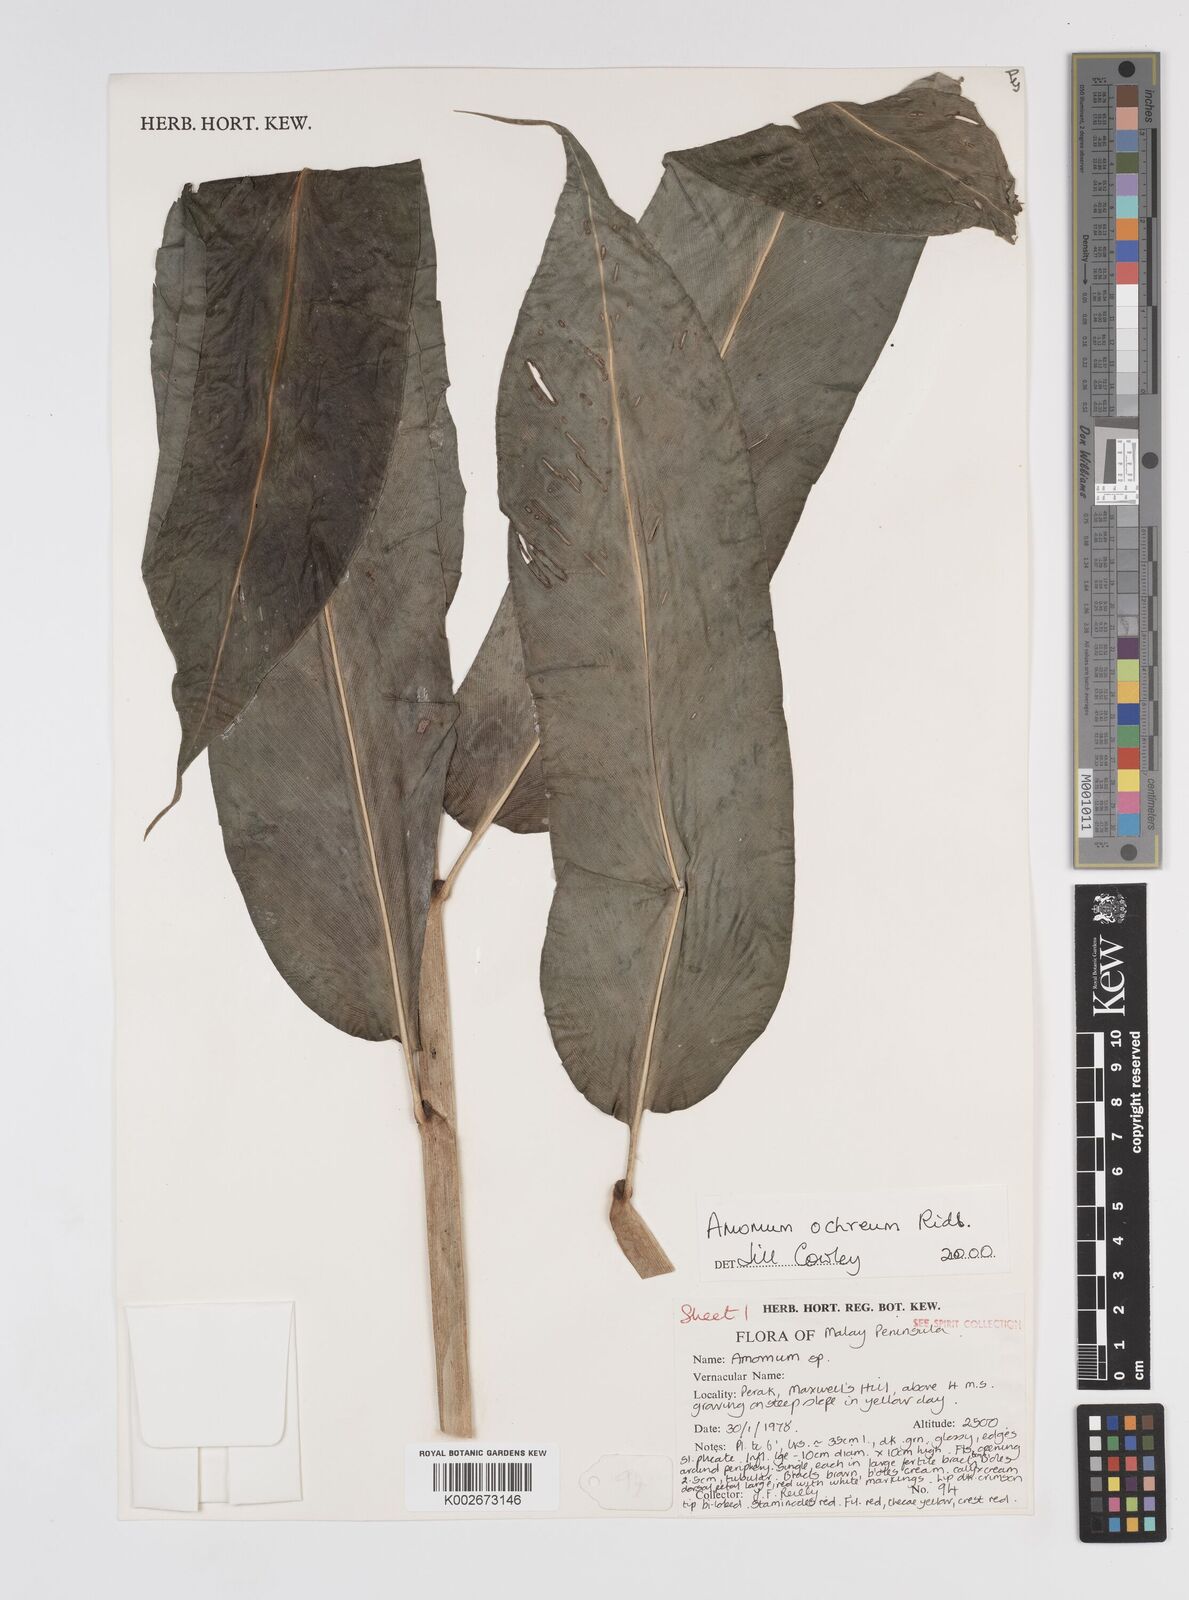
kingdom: Plantae
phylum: Tracheophyta
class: Liliopsida
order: Zingiberales
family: Zingiberaceae
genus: Meistera
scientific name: Meistera ochrea
